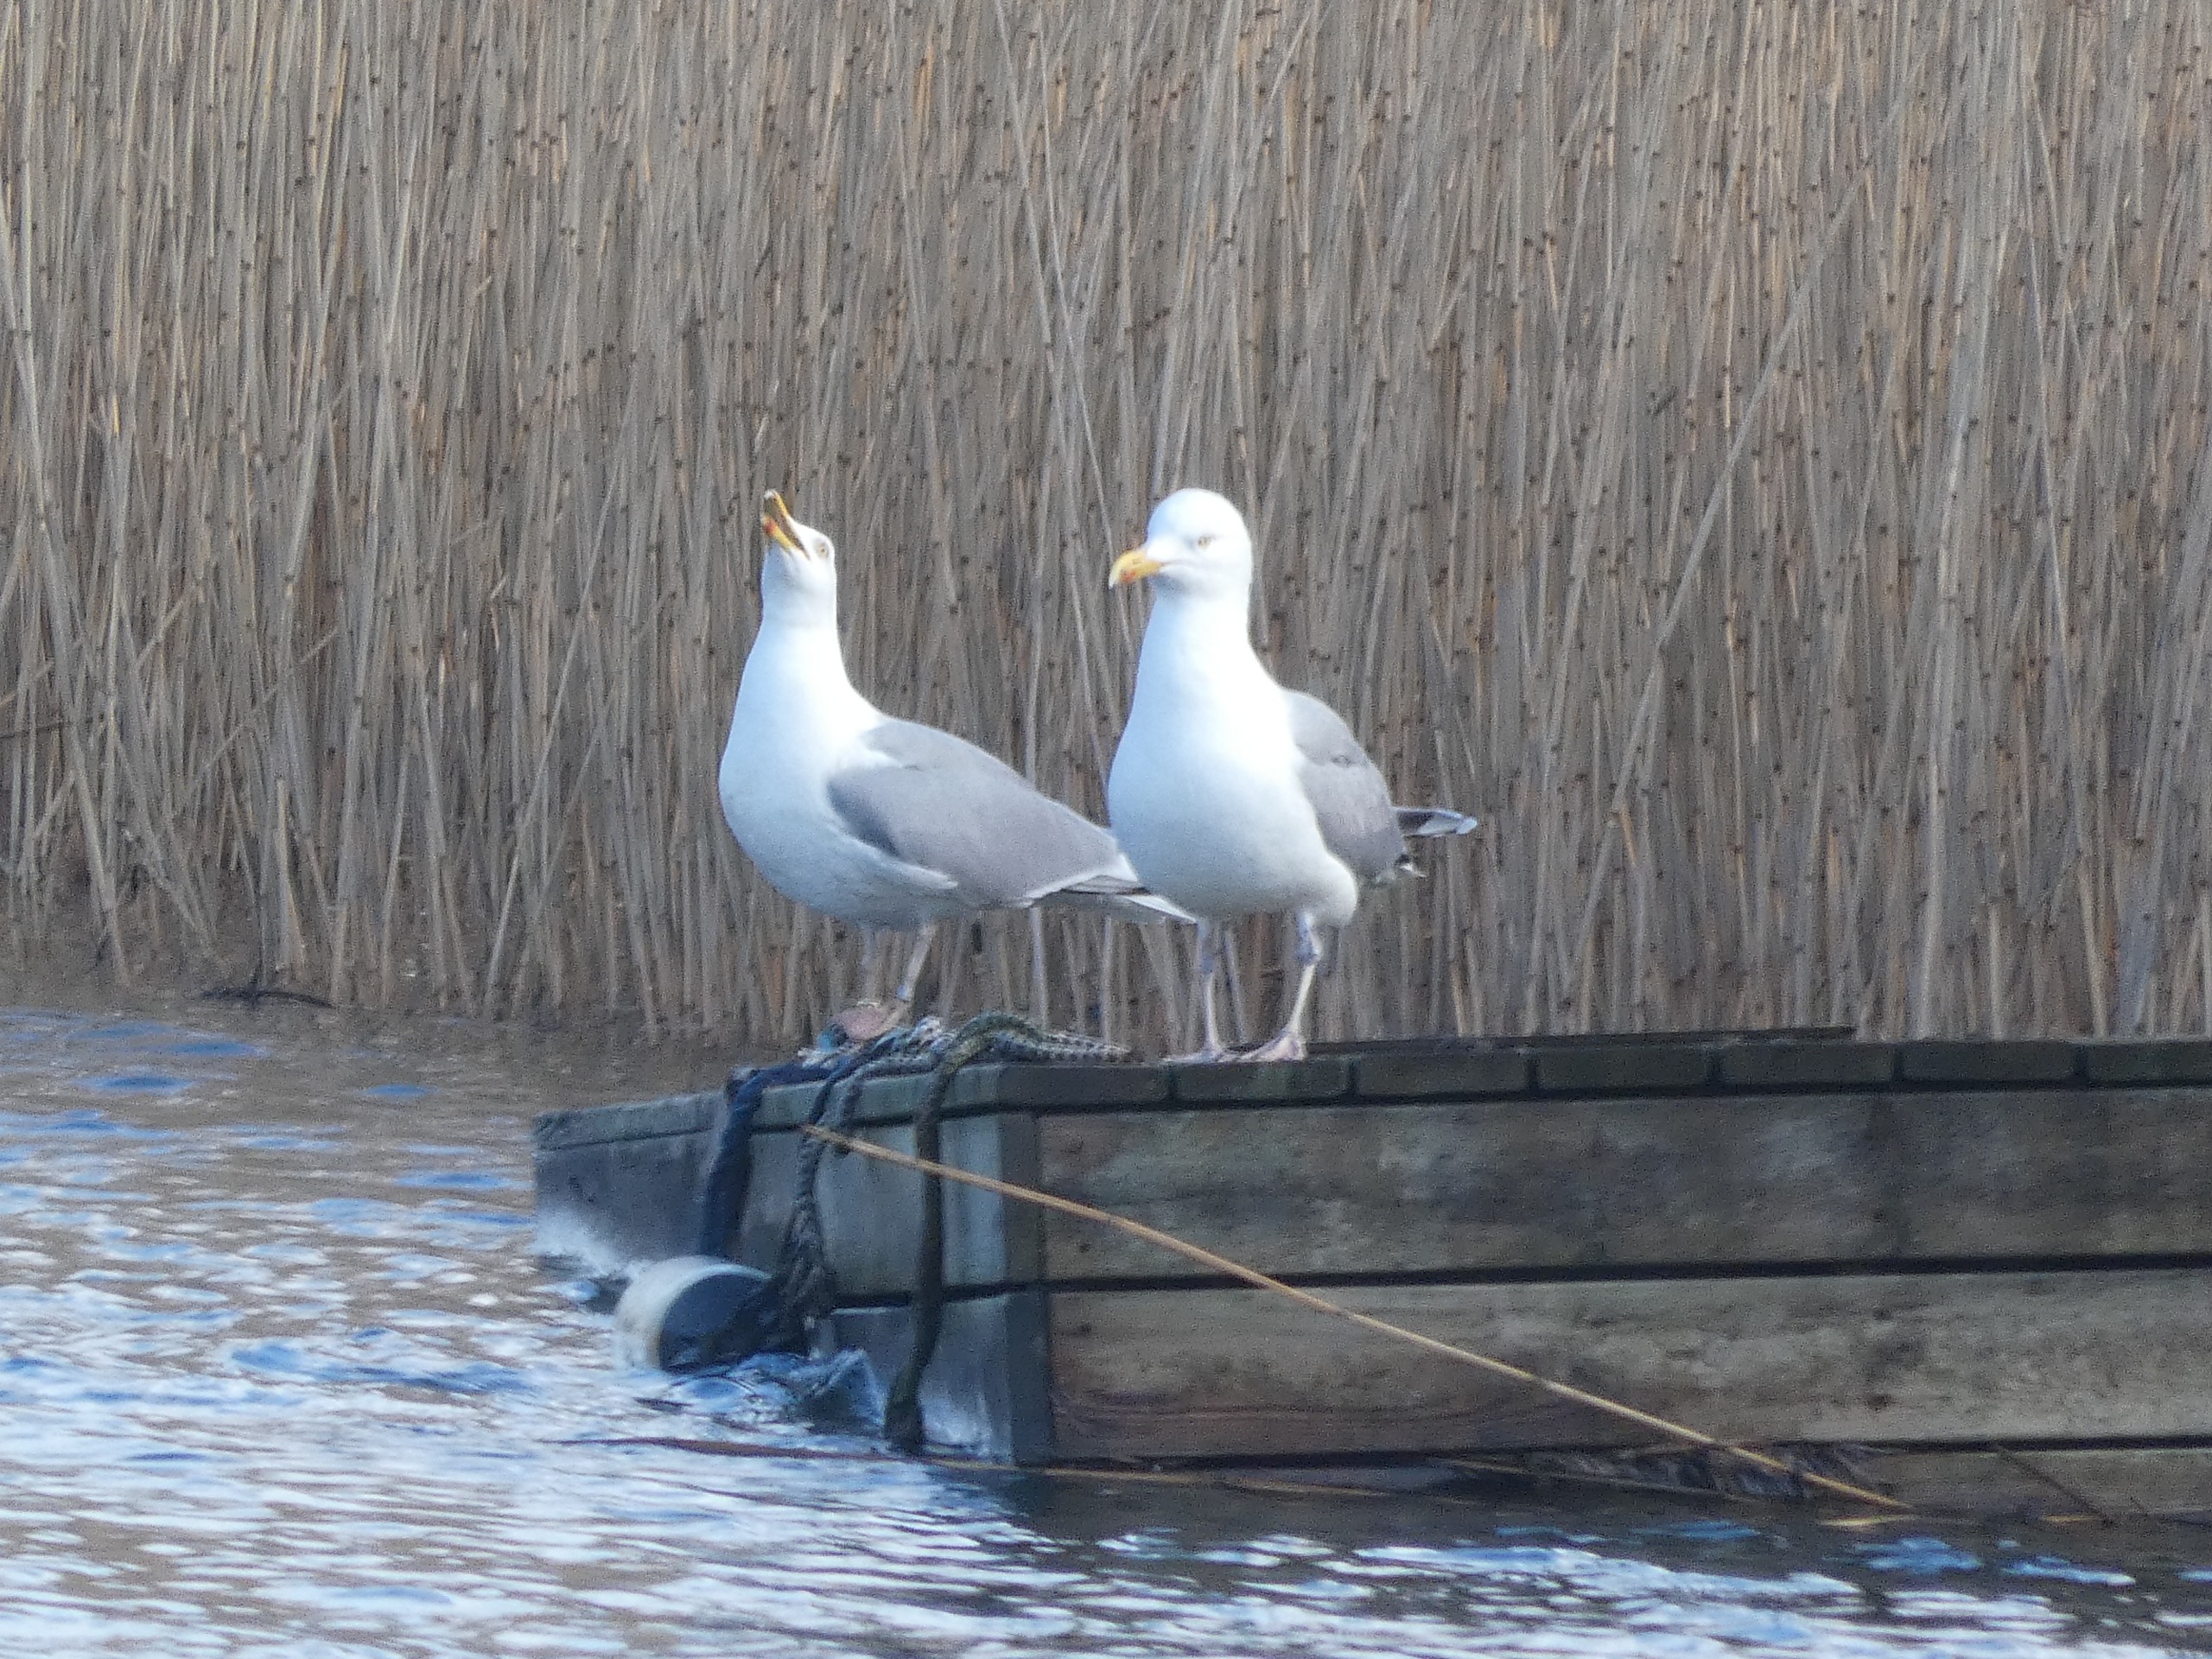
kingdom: Animalia
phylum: Chordata
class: Aves
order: Charadriiformes
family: Laridae
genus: Larus
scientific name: Larus argentatus
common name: Sølvmåge
